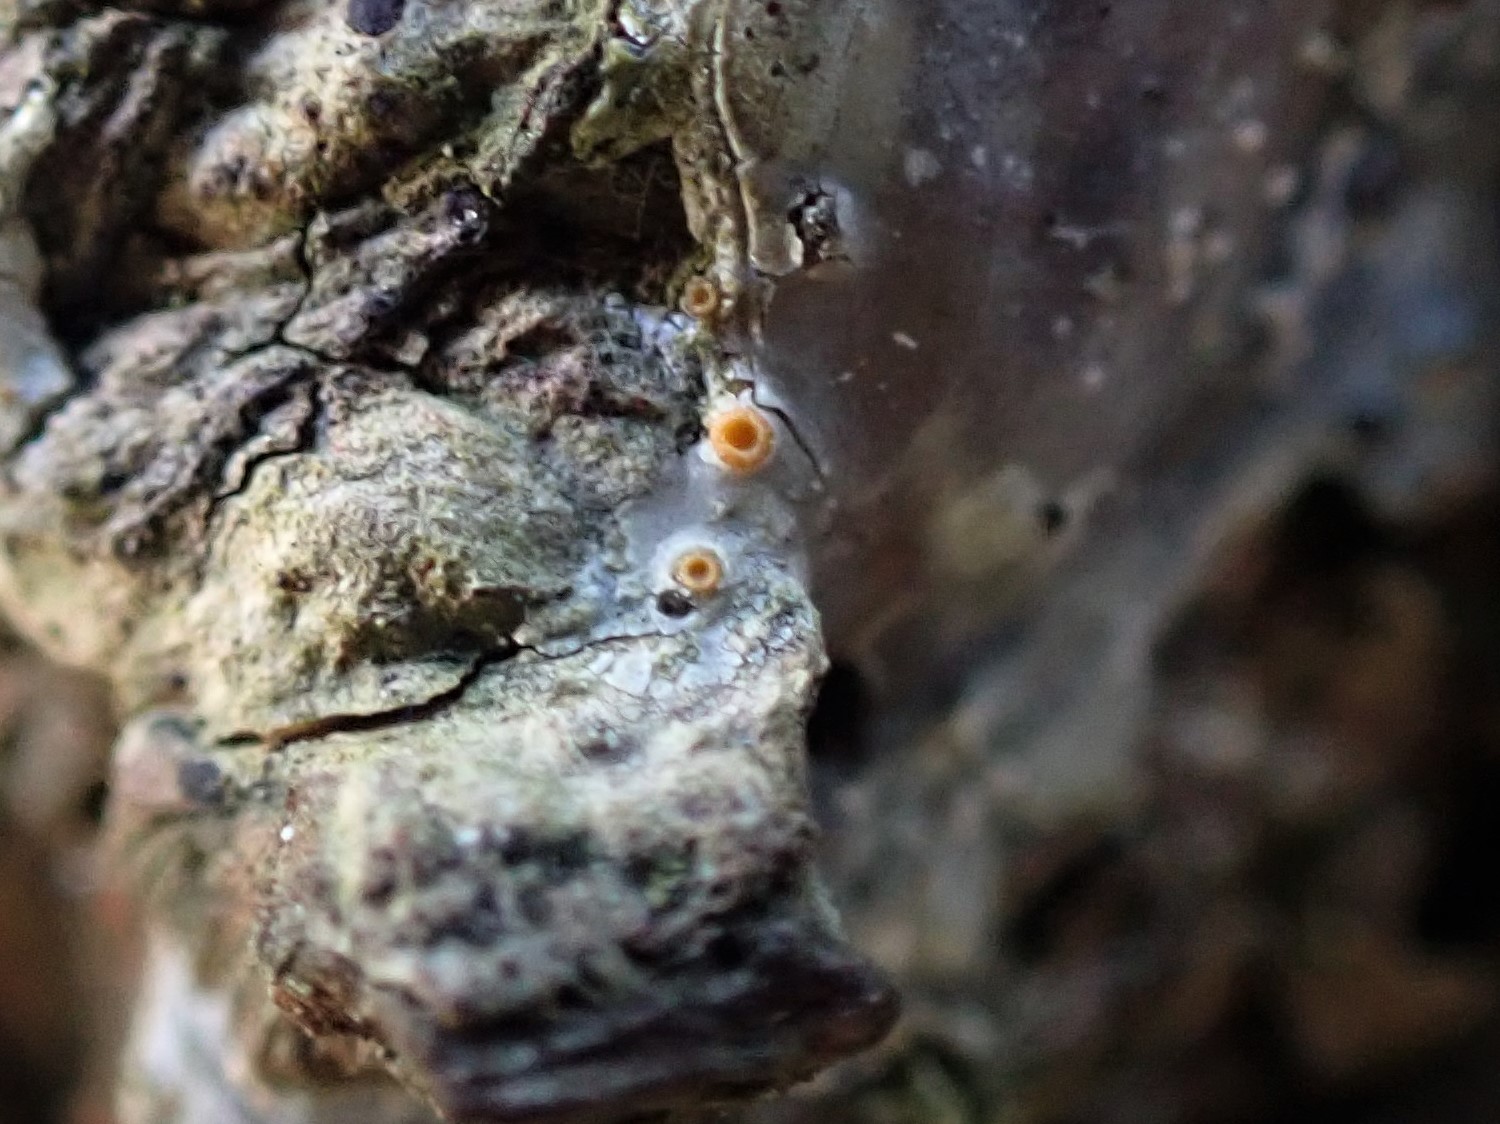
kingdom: Fungi
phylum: Ascomycota
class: Sareomycetes
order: Sareales
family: Sareaceae
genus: Sarea
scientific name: Sarea resinae
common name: orangegul harpiksskive
